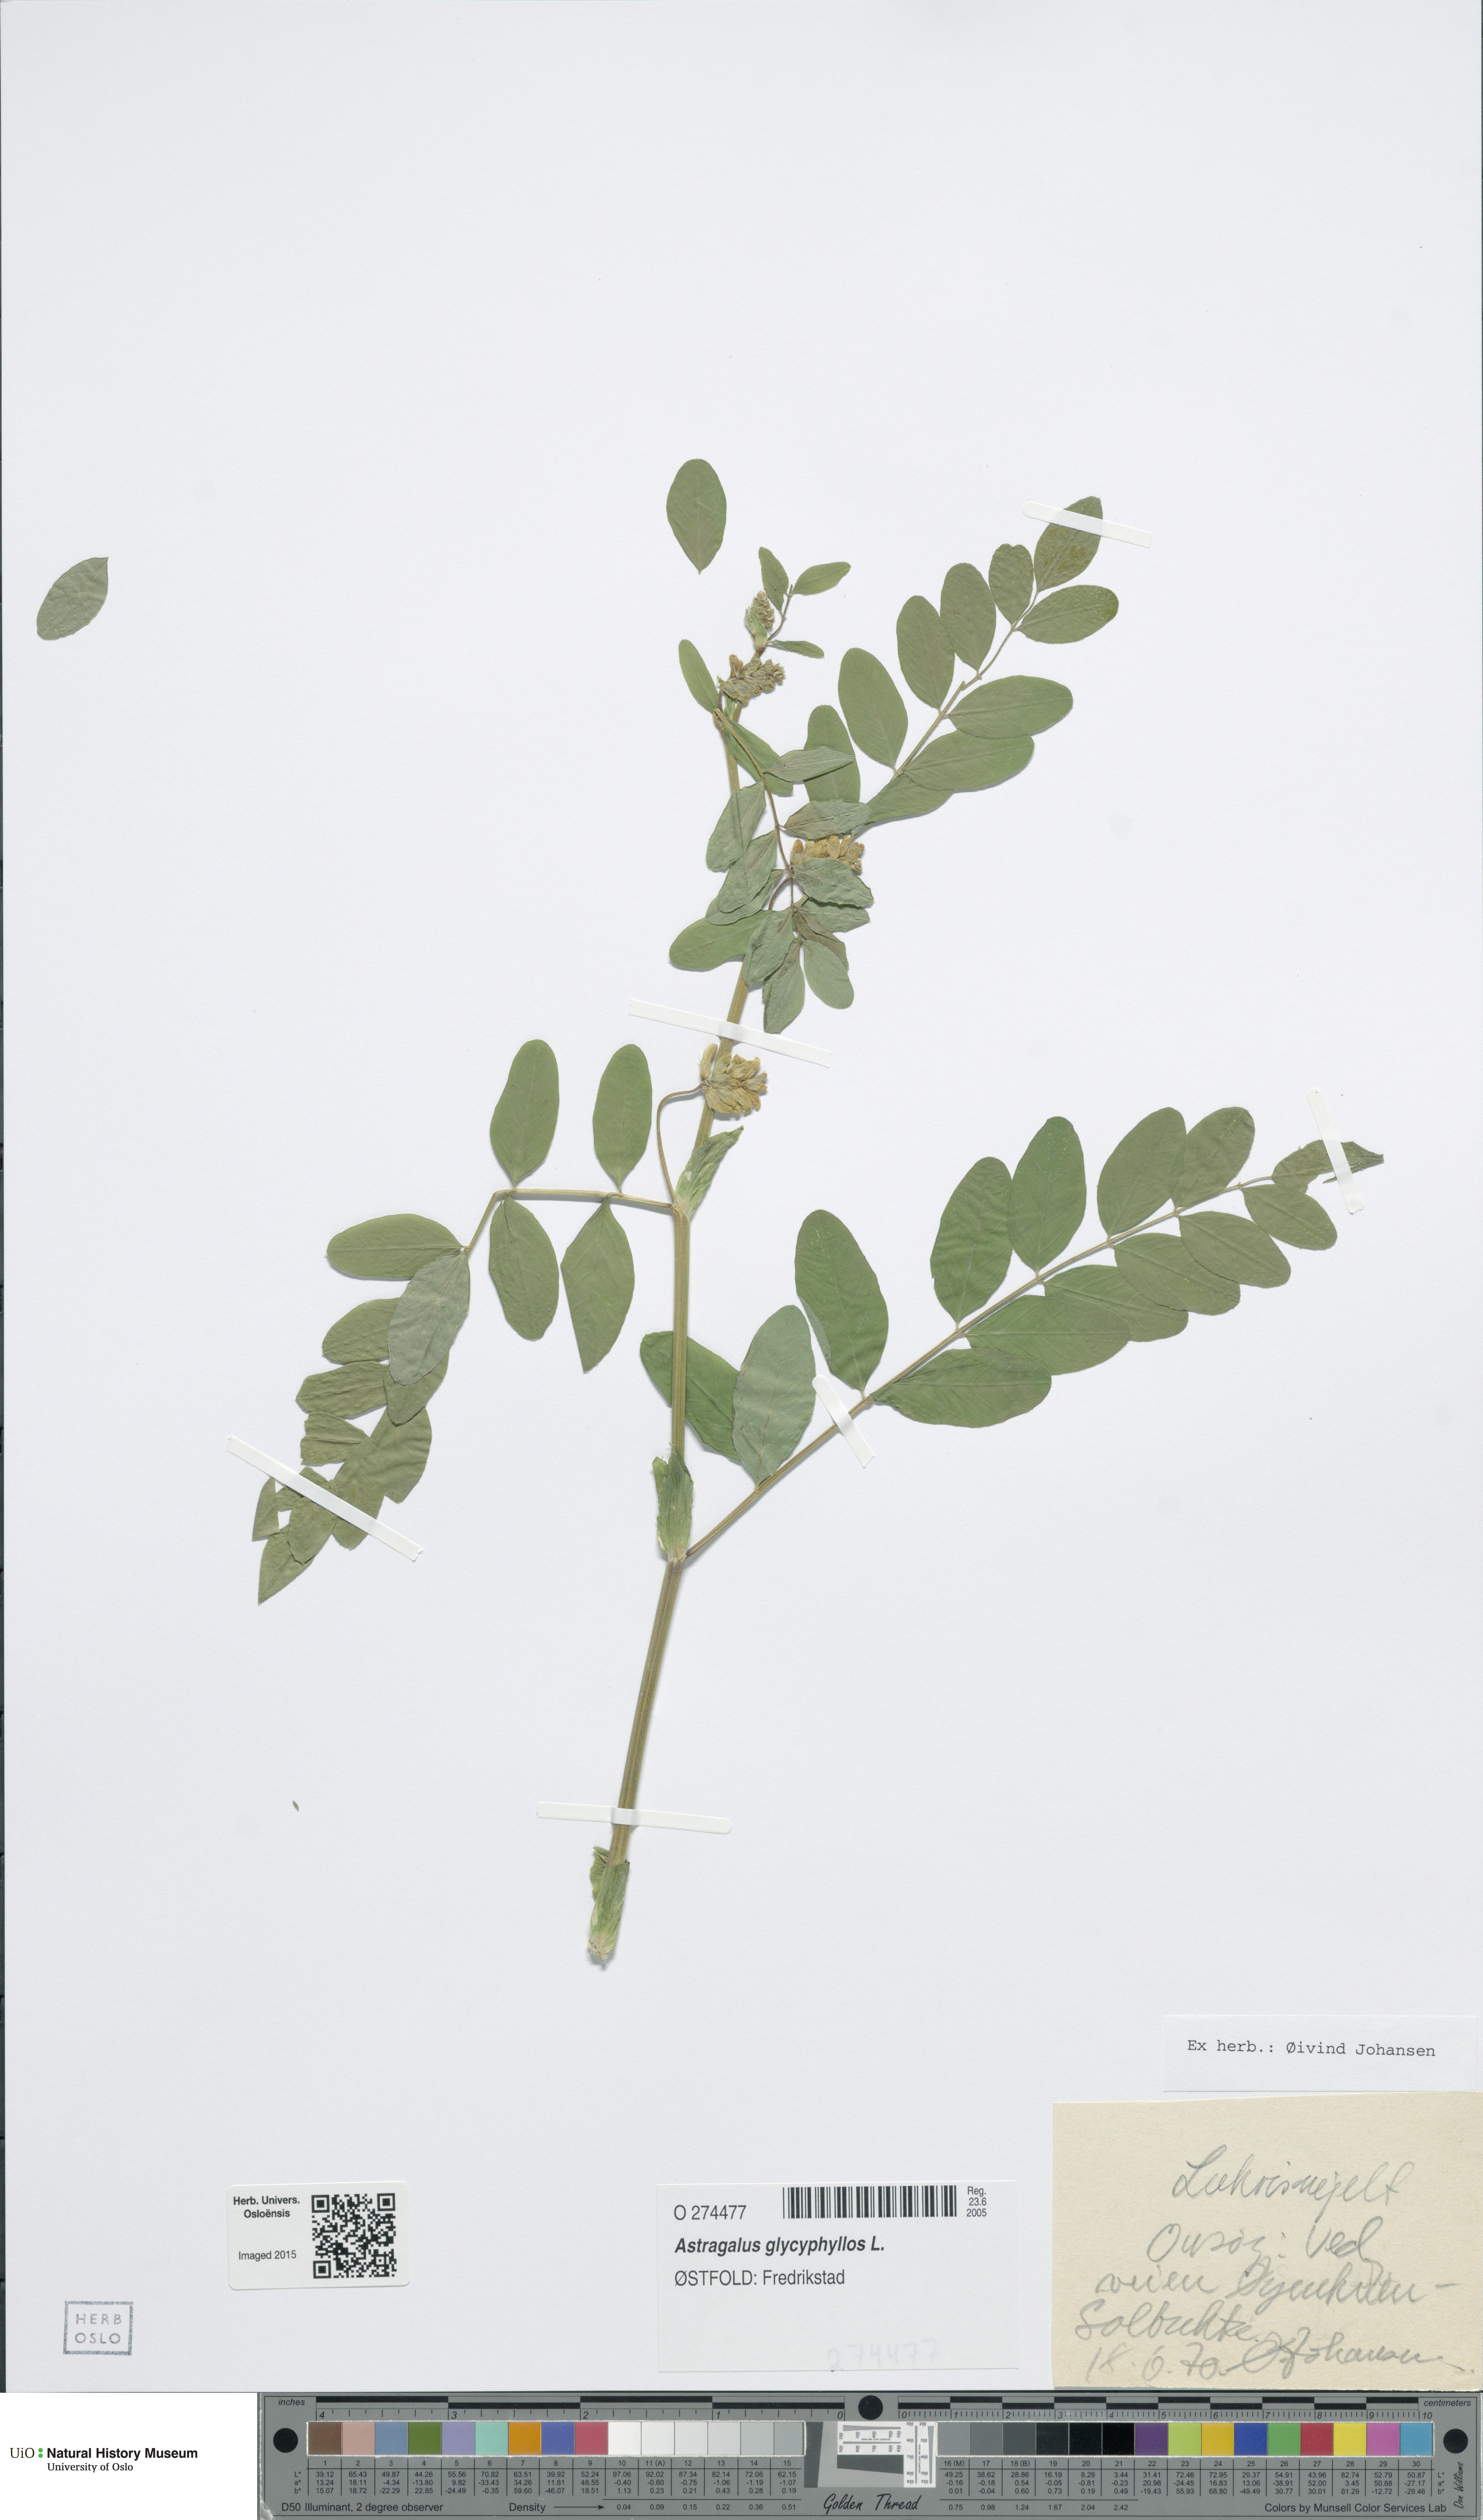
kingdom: Plantae
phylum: Tracheophyta
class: Magnoliopsida
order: Fabales
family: Fabaceae
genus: Astragalus
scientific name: Astragalus glycyphyllos
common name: Wild liquorice
